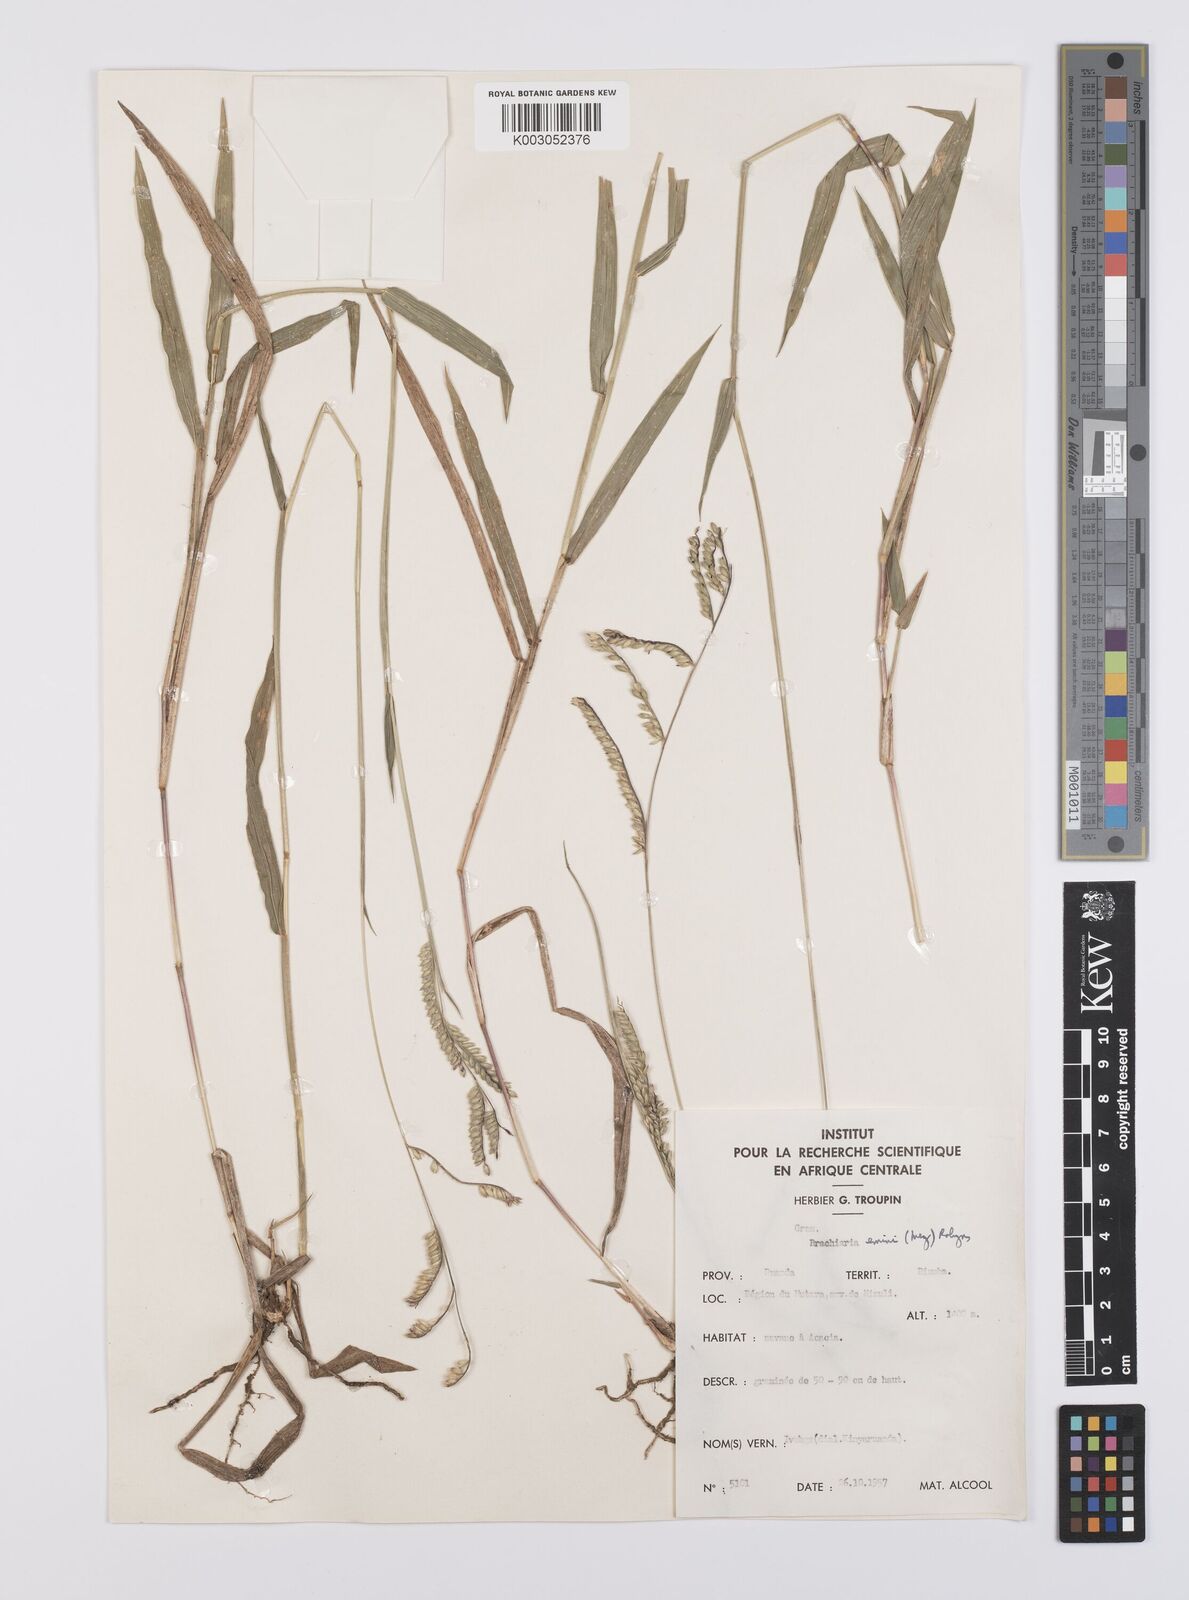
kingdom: Plantae
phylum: Tracheophyta
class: Liliopsida
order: Poales
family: Poaceae
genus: Urochloa
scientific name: Urochloa eminii
